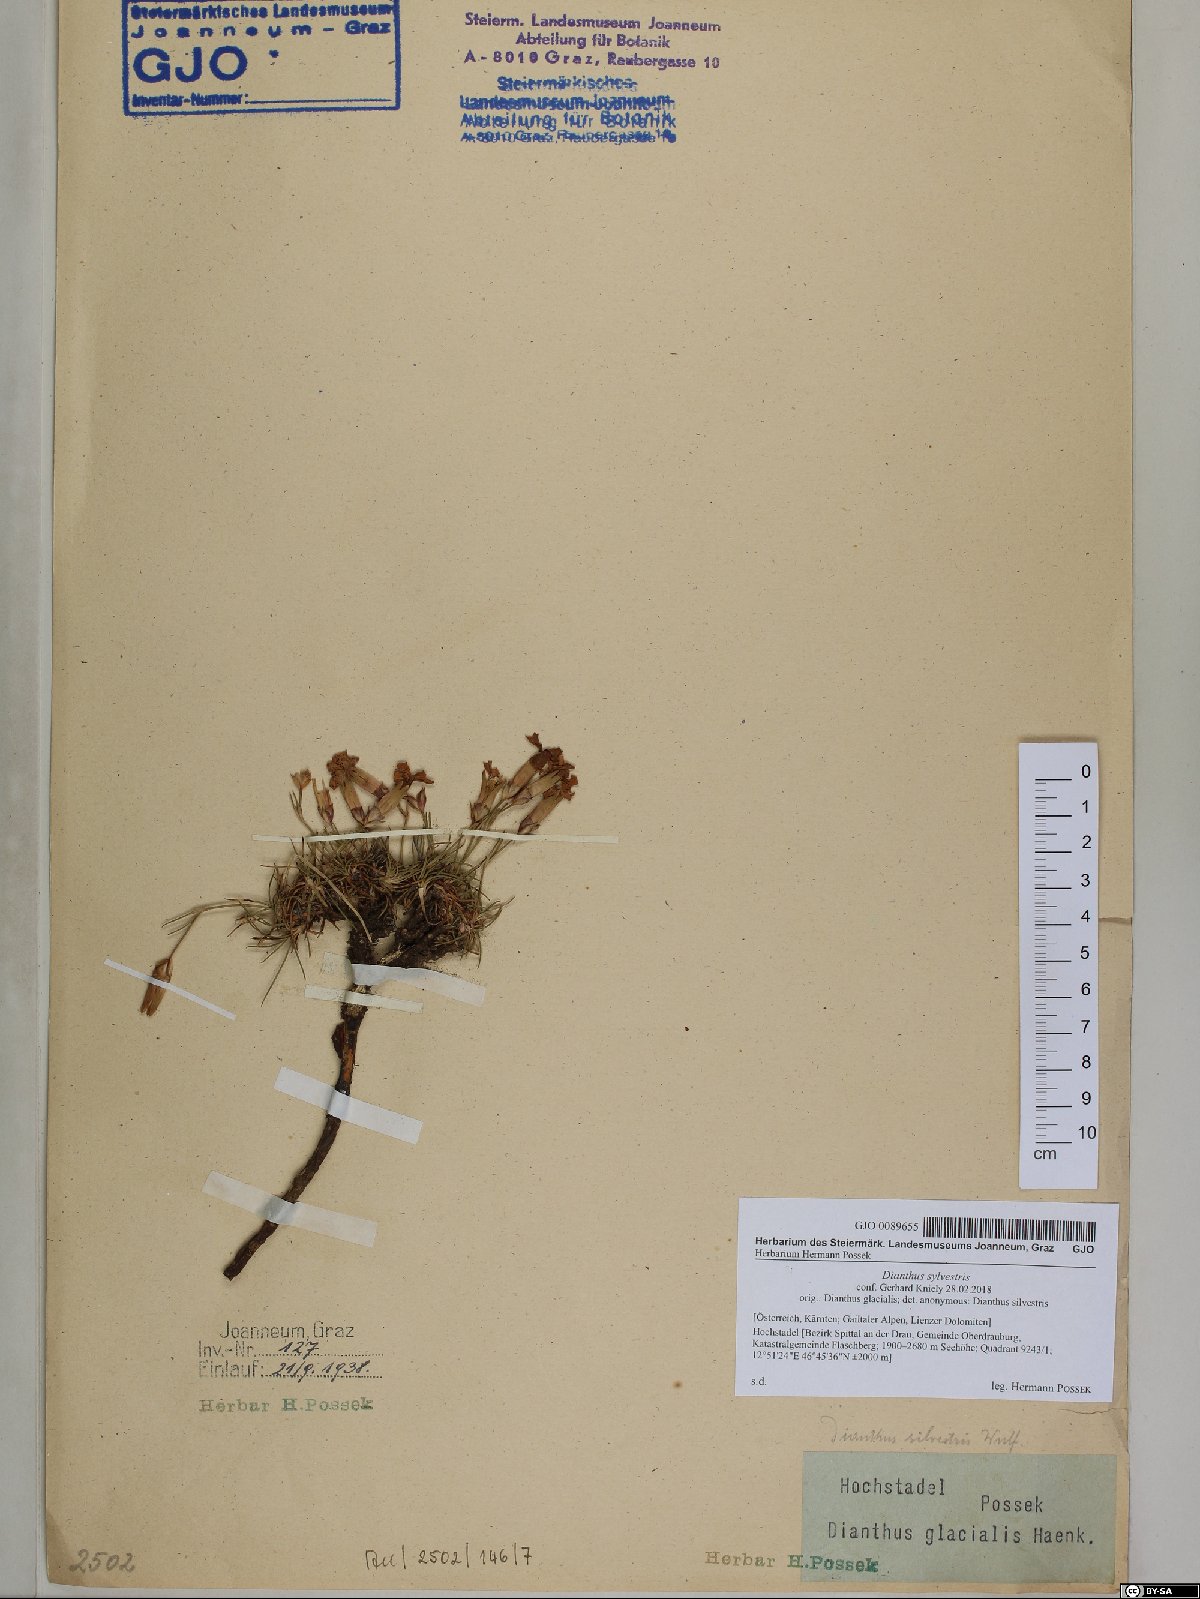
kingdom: Plantae
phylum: Tracheophyta
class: Magnoliopsida
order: Caryophyllales
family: Caryophyllaceae
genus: Dianthus
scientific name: Dianthus sylvestris
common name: Wood pink
